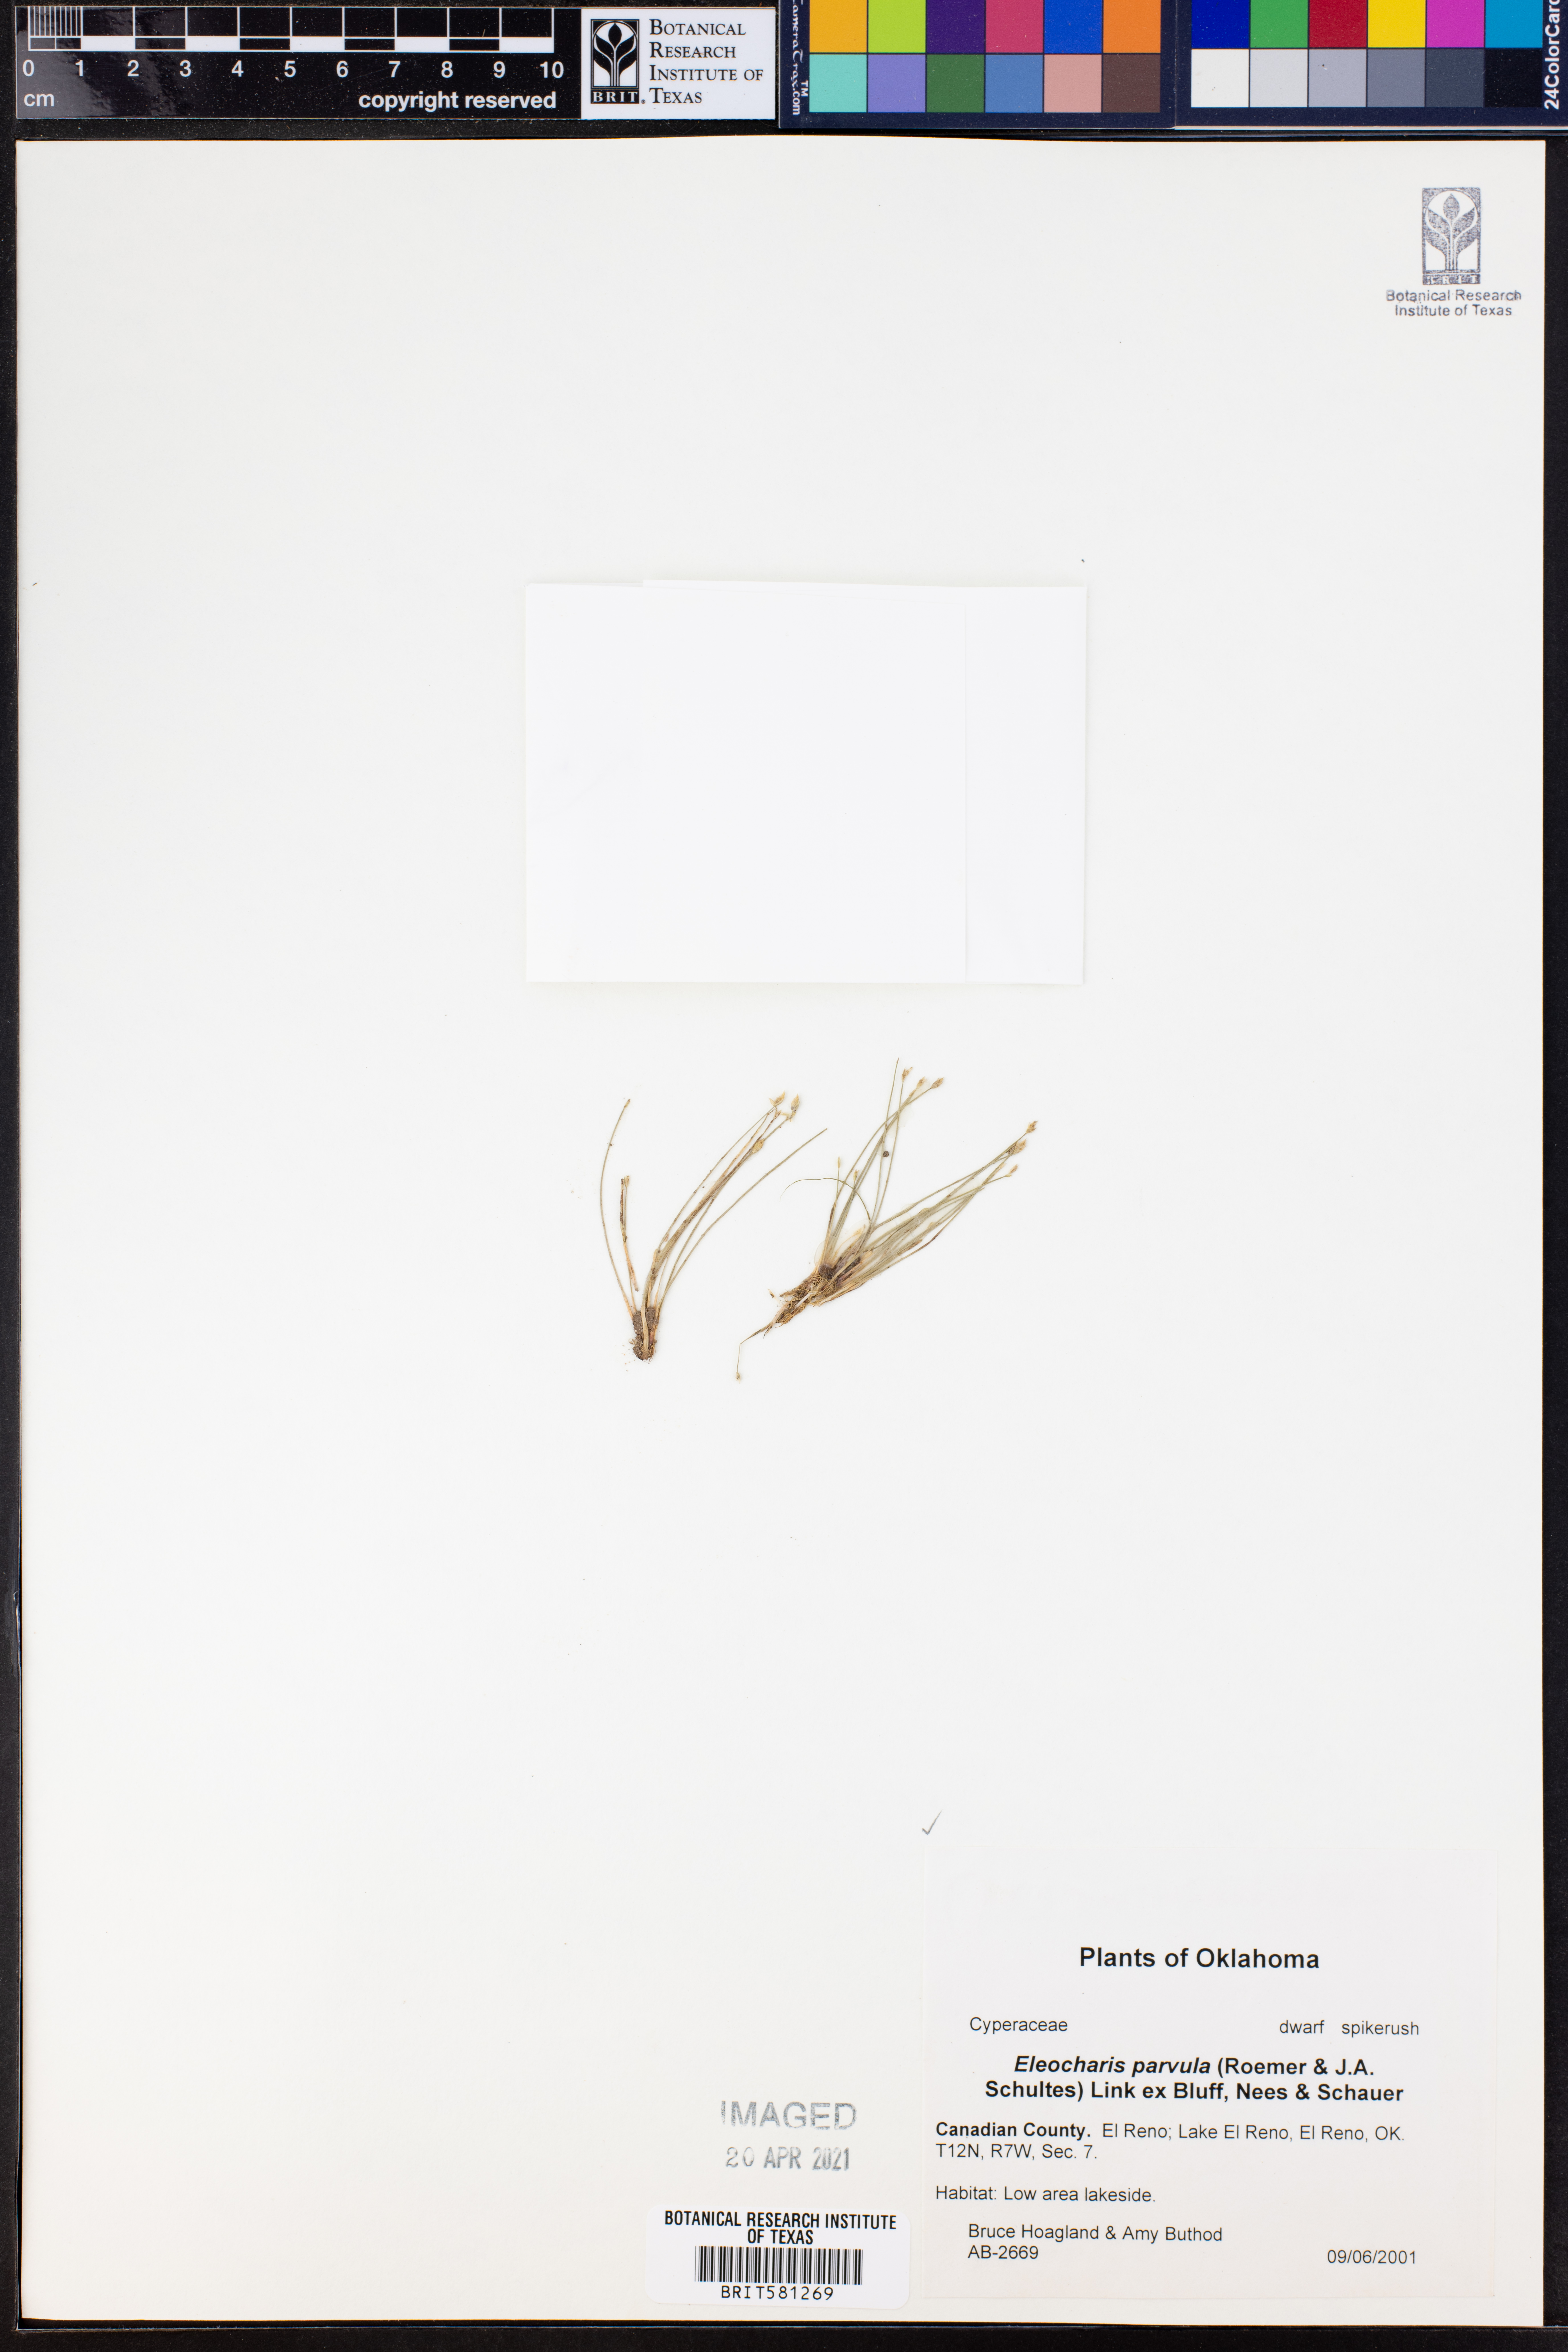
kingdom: Plantae
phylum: Tracheophyta
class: Liliopsida
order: Poales
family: Cyperaceae
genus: Eleocharis
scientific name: Eleocharis parvula
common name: Dwarf spike-rush
